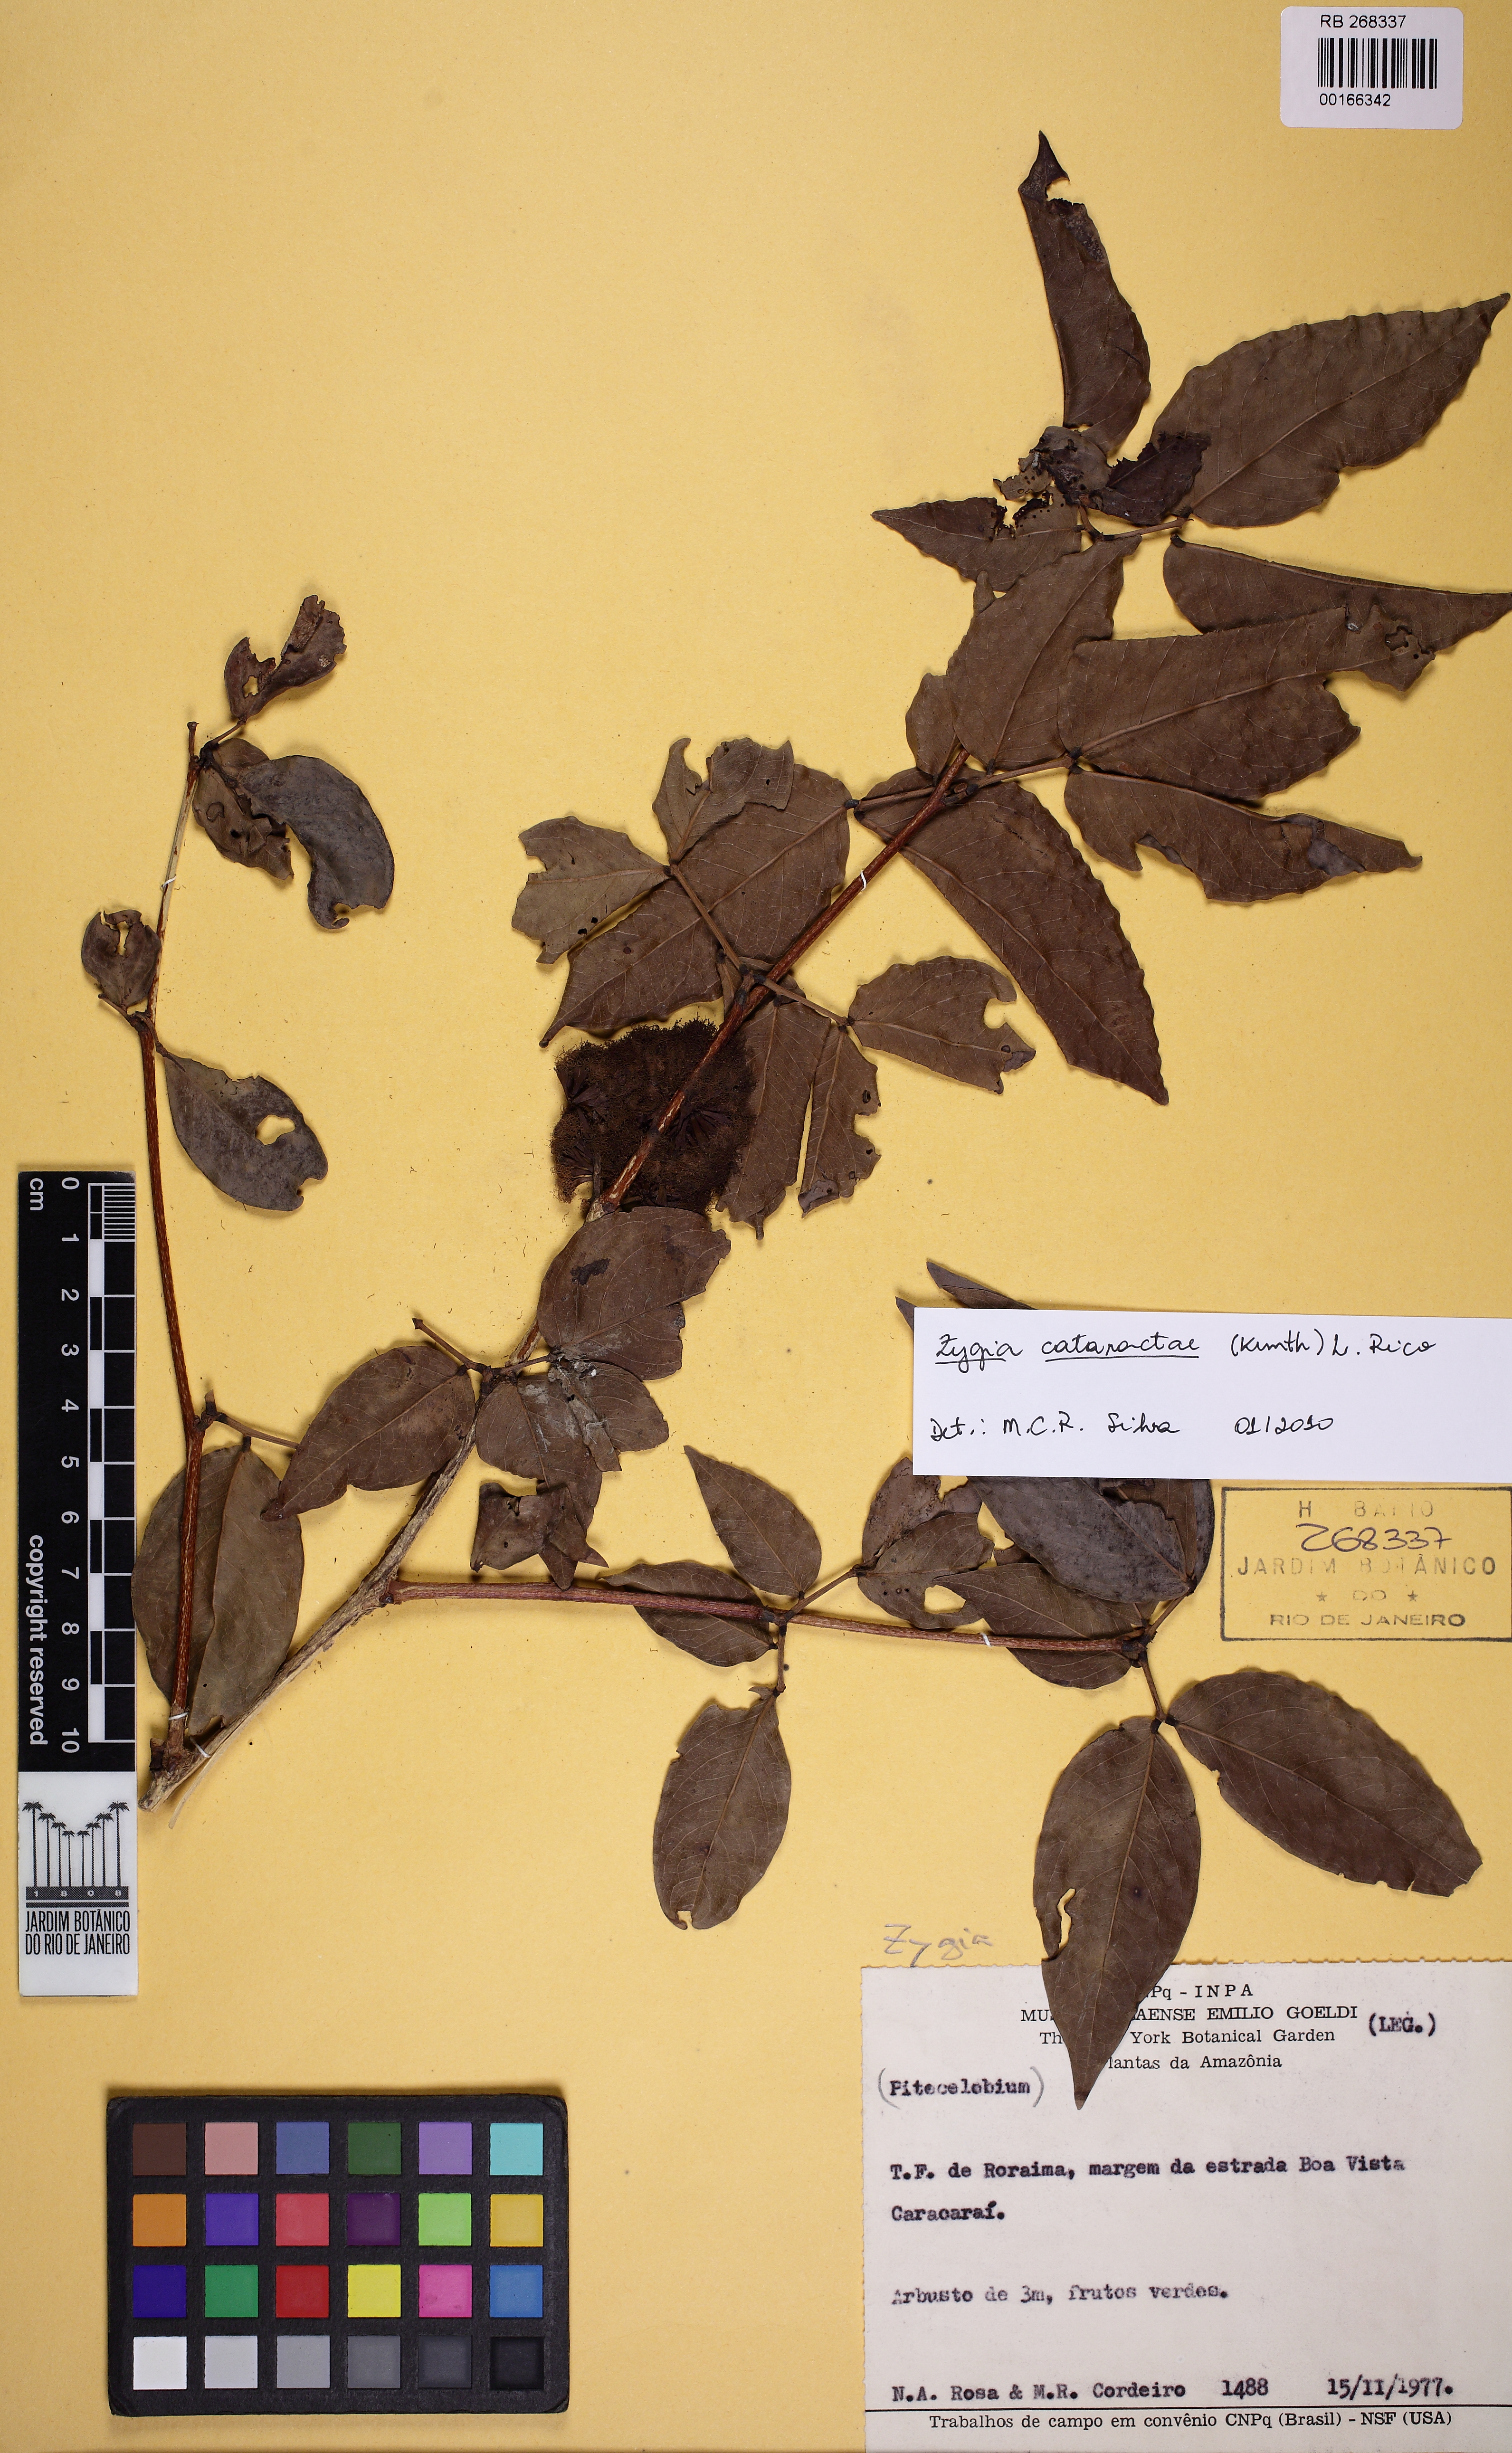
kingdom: Plantae
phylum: Tracheophyta
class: Magnoliopsida
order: Fabales
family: Fabaceae
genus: Zygia
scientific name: Zygia cataractae
